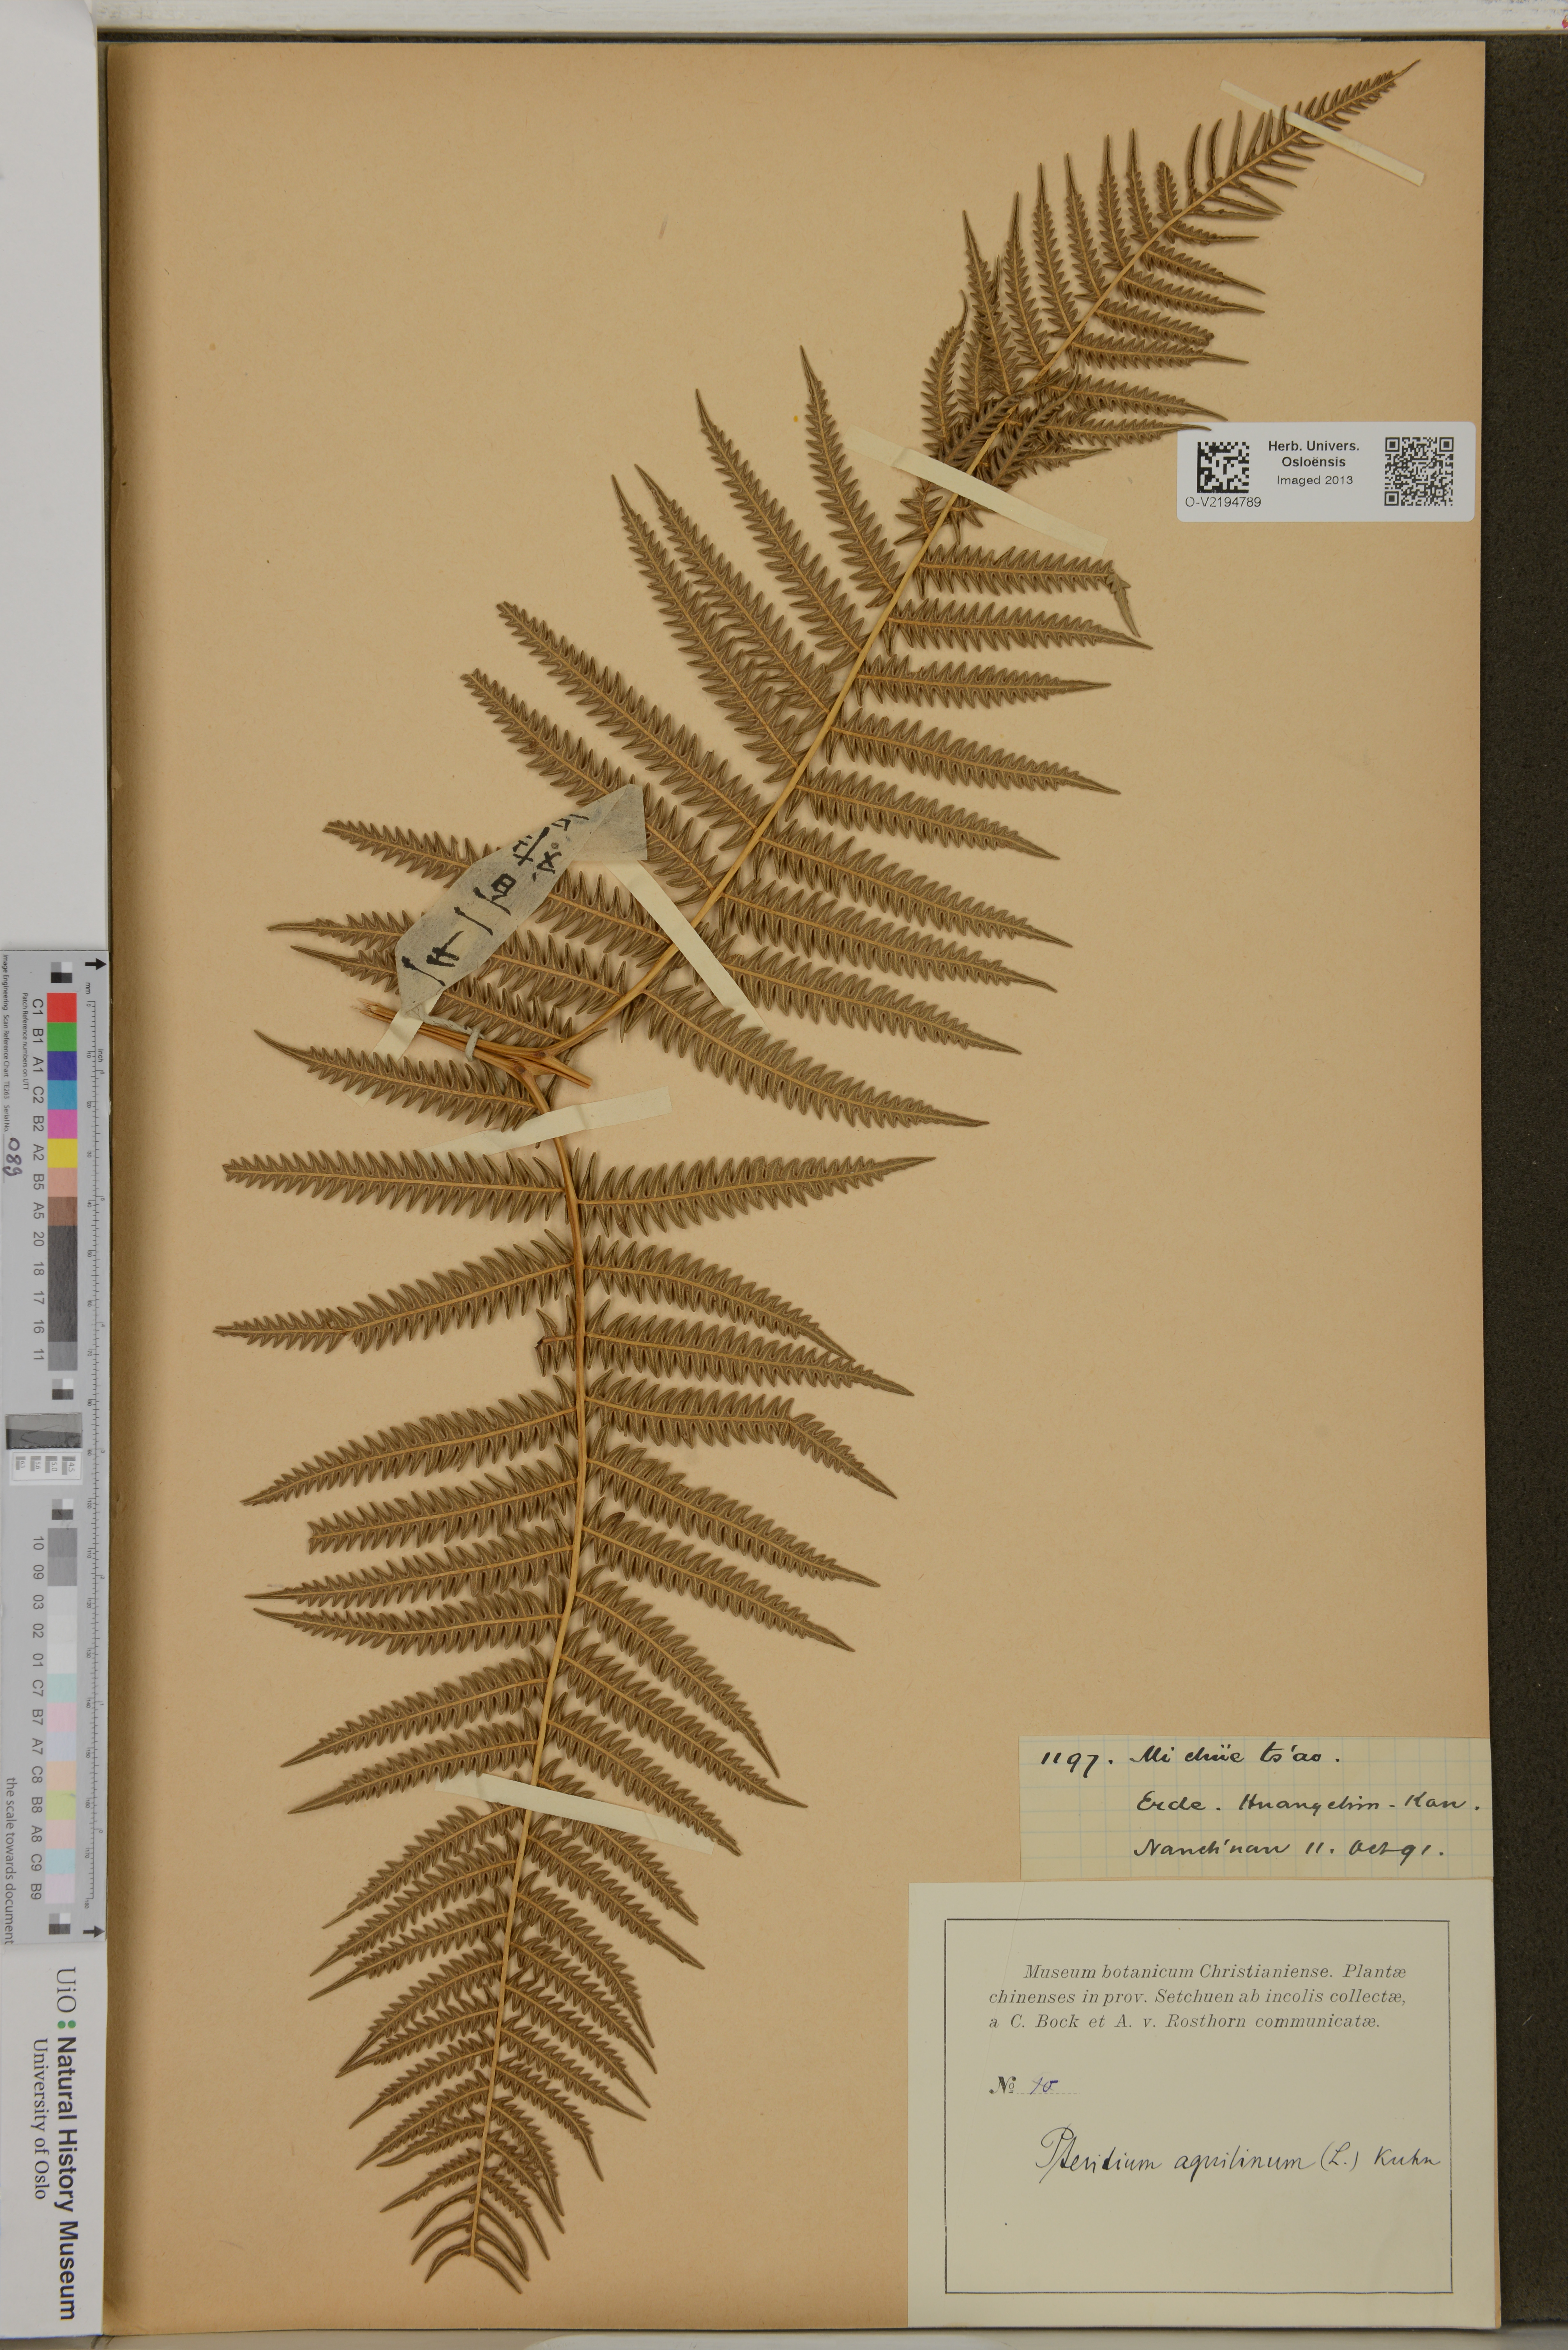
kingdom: Plantae
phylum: Tracheophyta
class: Polypodiopsida
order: Polypodiales
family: Dennstaedtiaceae
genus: Pteridium
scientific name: Pteridium aquilinum
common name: Bracken
